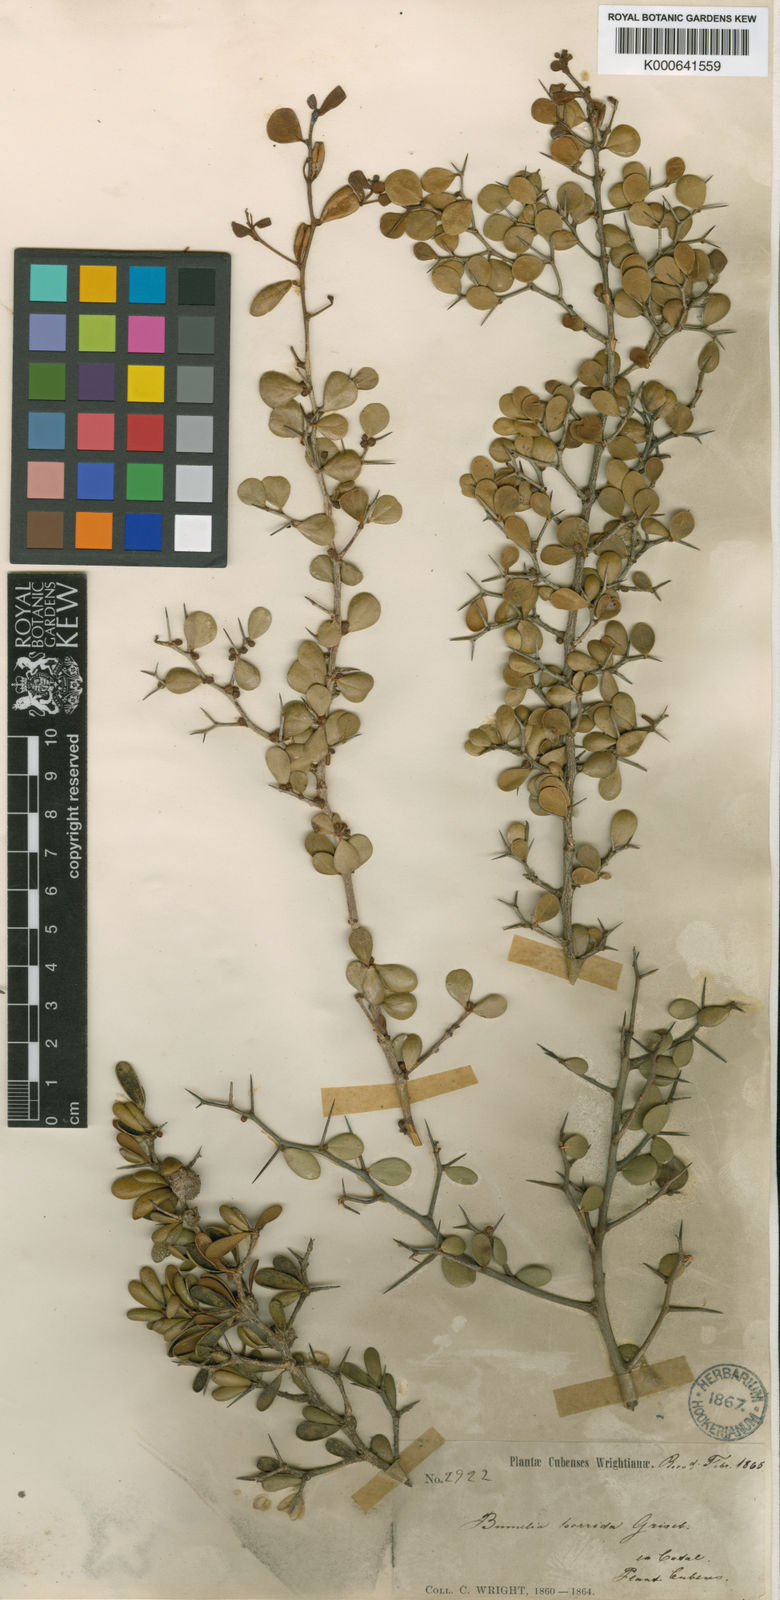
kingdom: Plantae
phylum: Tracheophyta
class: Magnoliopsida
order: Ericales
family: Sapotaceae
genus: Sideroxylon
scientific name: Sideroxylon horridum
